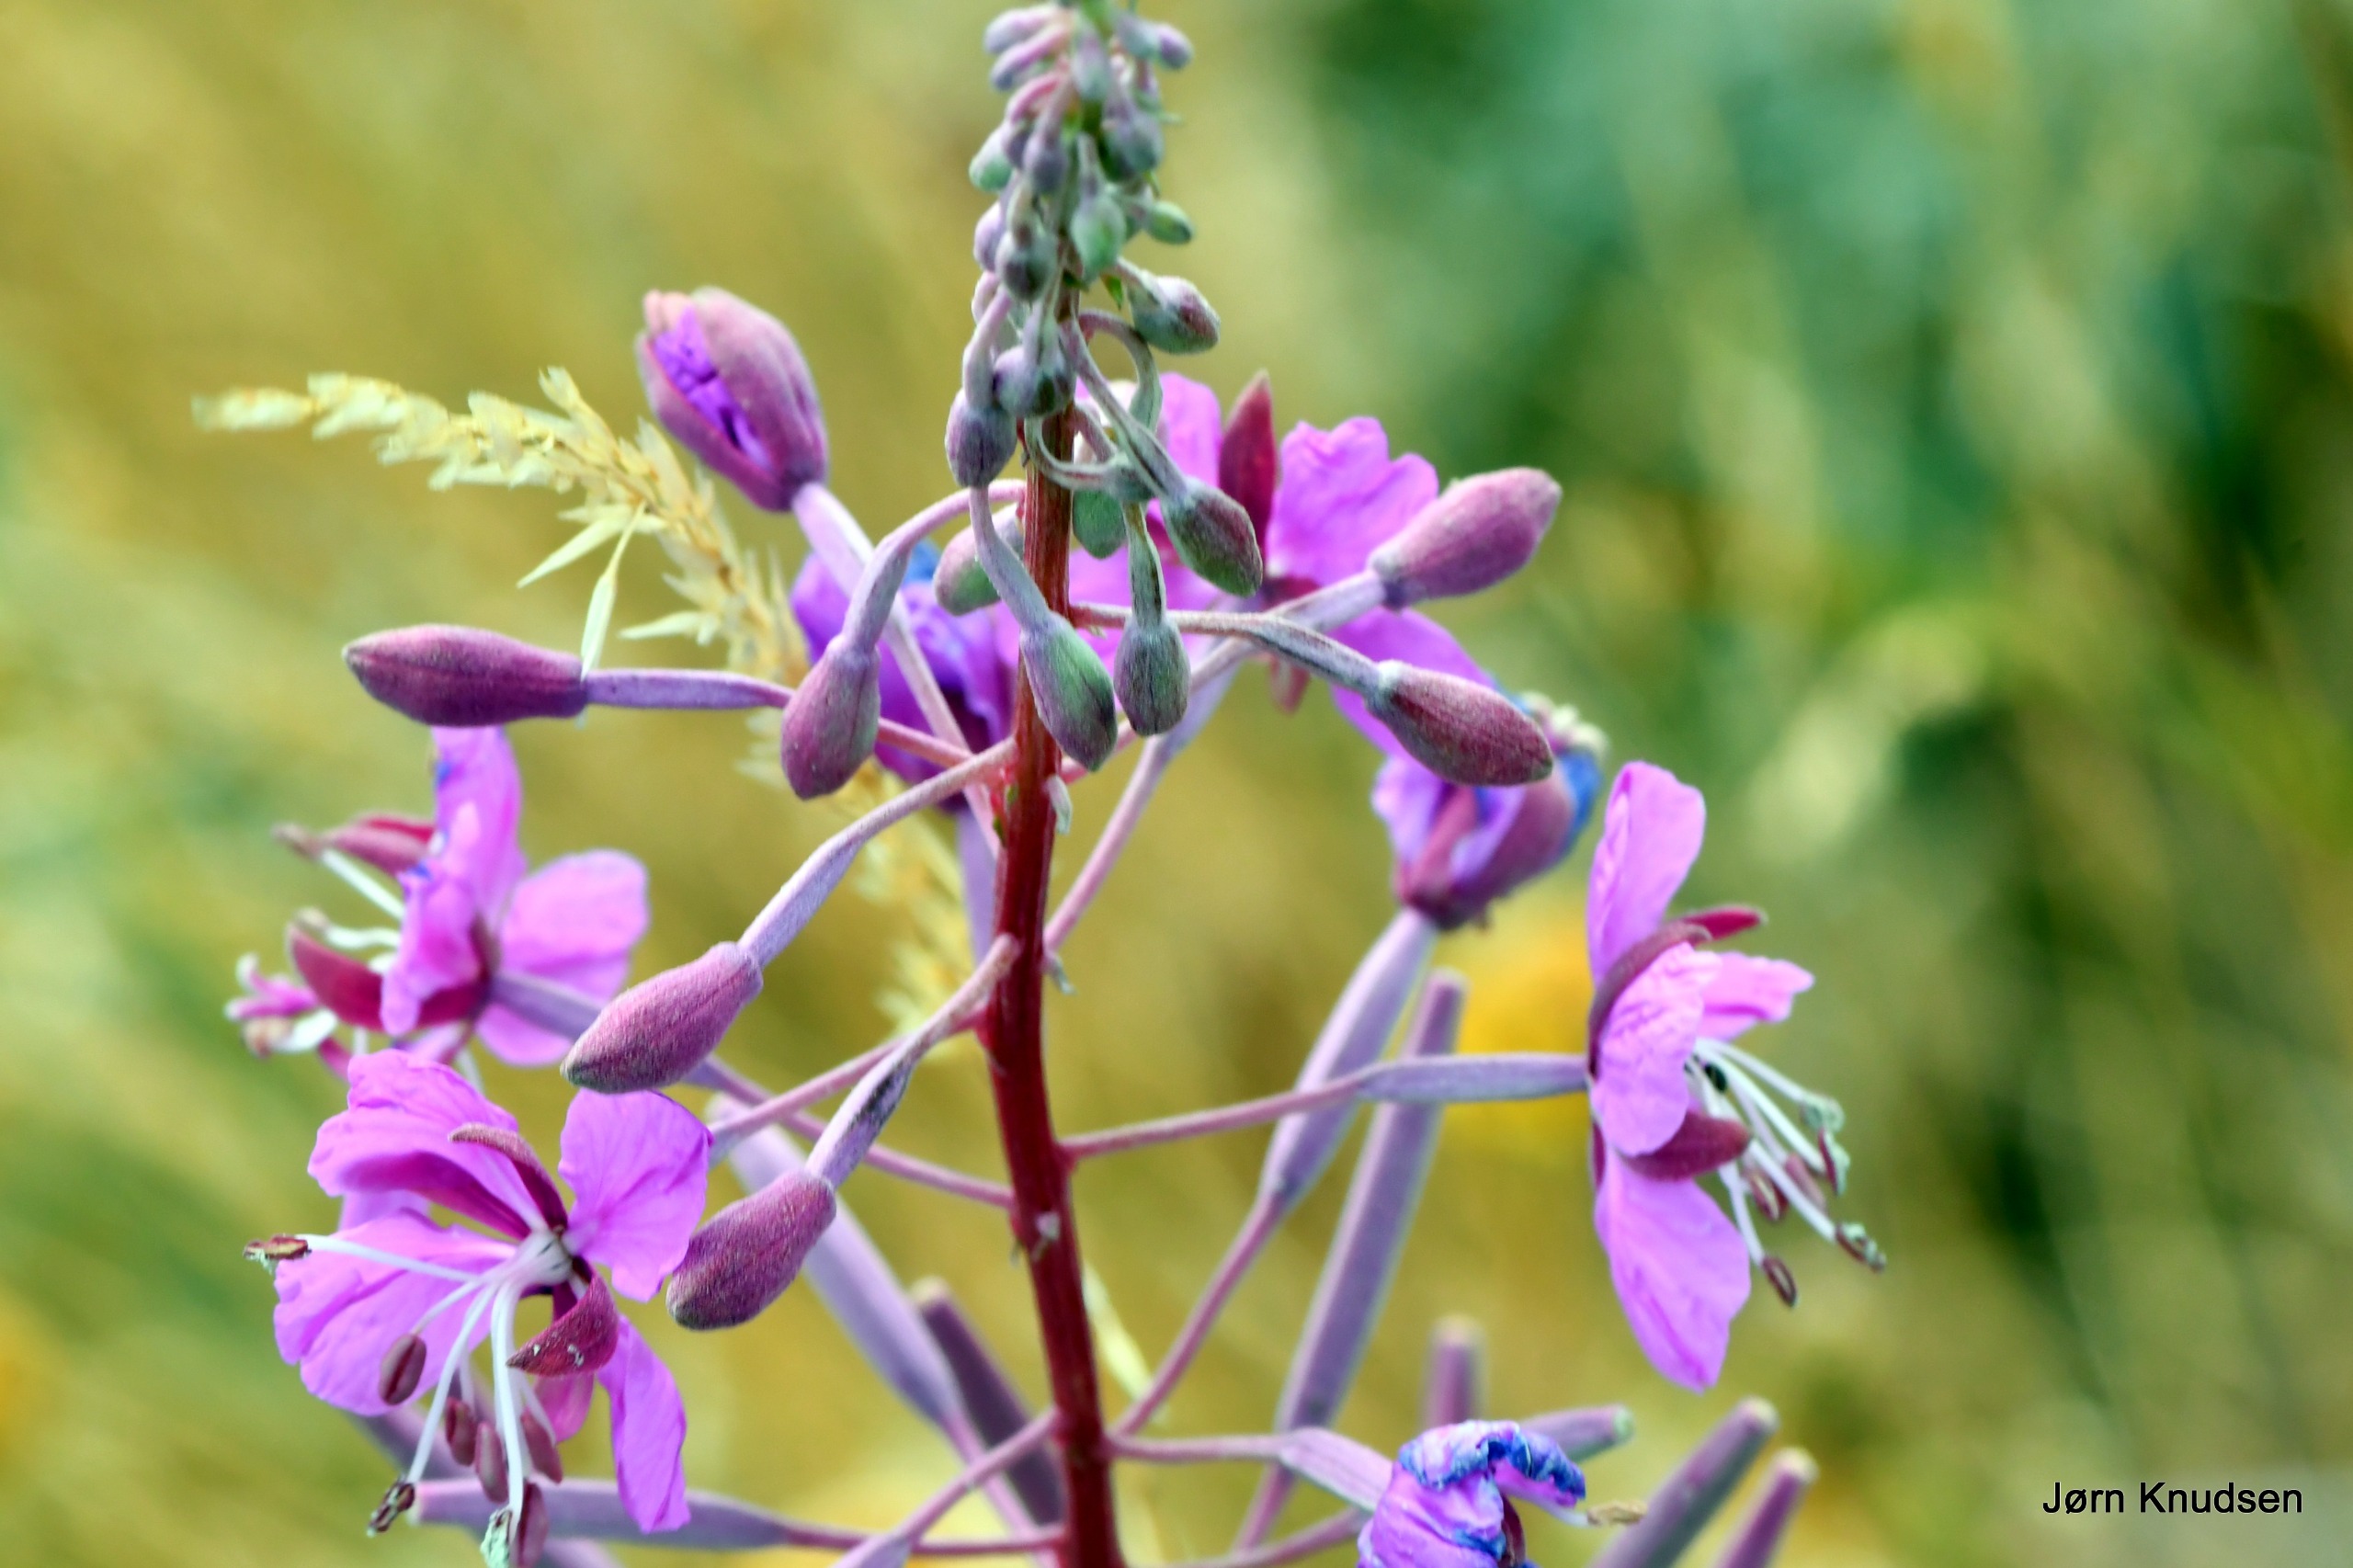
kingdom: Plantae
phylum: Tracheophyta
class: Magnoliopsida
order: Myrtales
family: Onagraceae
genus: Chamaenerion
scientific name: Chamaenerion angustifolium
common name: Gederams
